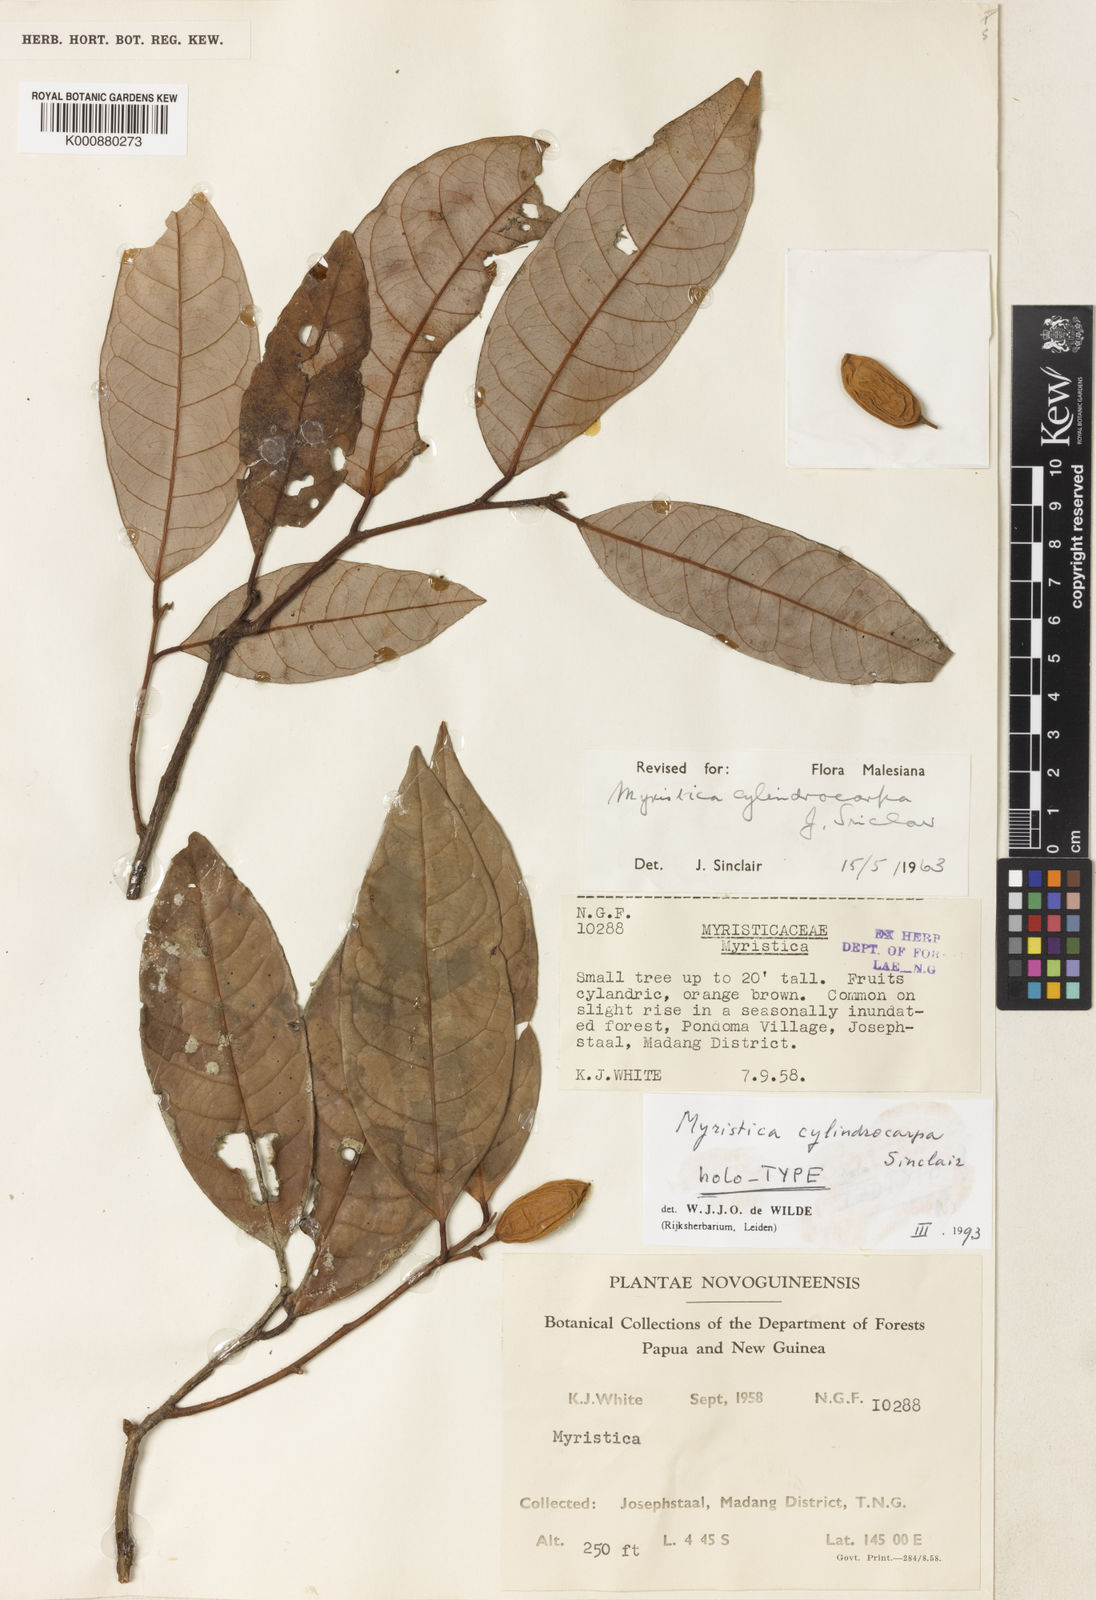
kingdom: Plantae
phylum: Tracheophyta
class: Magnoliopsida
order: Magnoliales
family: Myristicaceae
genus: Myristica
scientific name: Myristica cylindrocarpa
